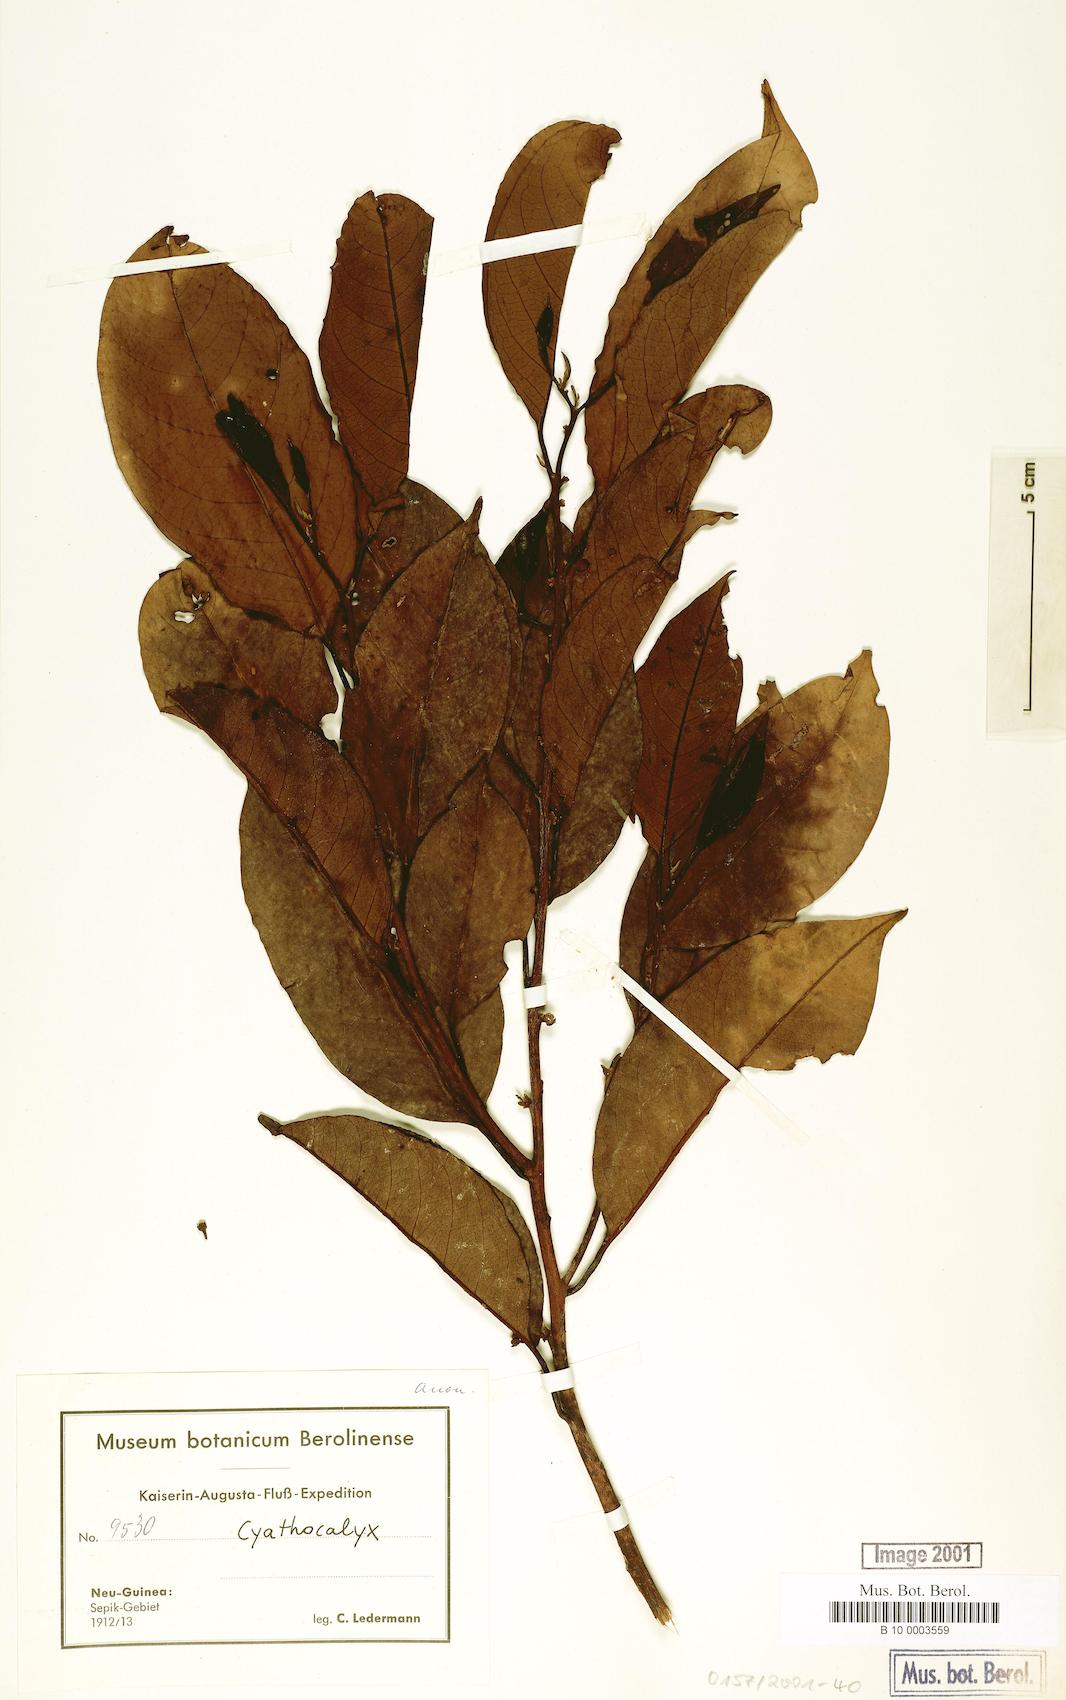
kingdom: Plantae
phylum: Tracheophyta
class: Magnoliopsida
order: Magnoliales
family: Annonaceae
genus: Cyathocalyx
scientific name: Cyathocalyx
